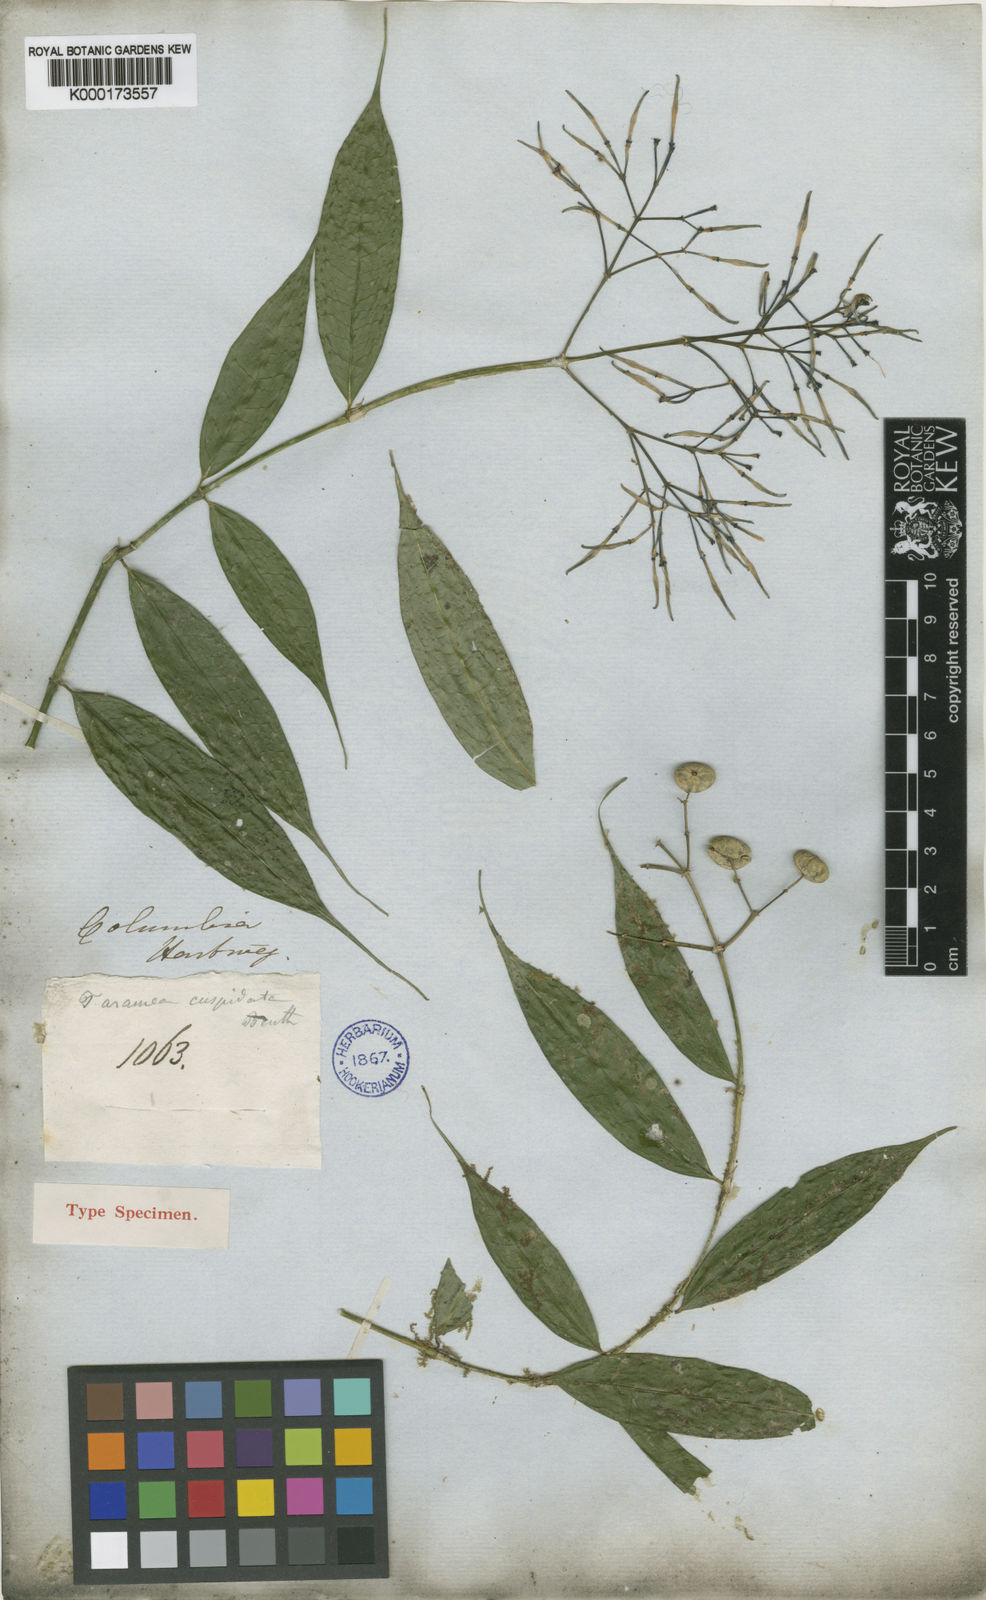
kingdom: Plantae
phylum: Tracheophyta
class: Magnoliopsida
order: Gentianales
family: Rubiaceae
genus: Faramea
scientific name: Faramea cuspidata
